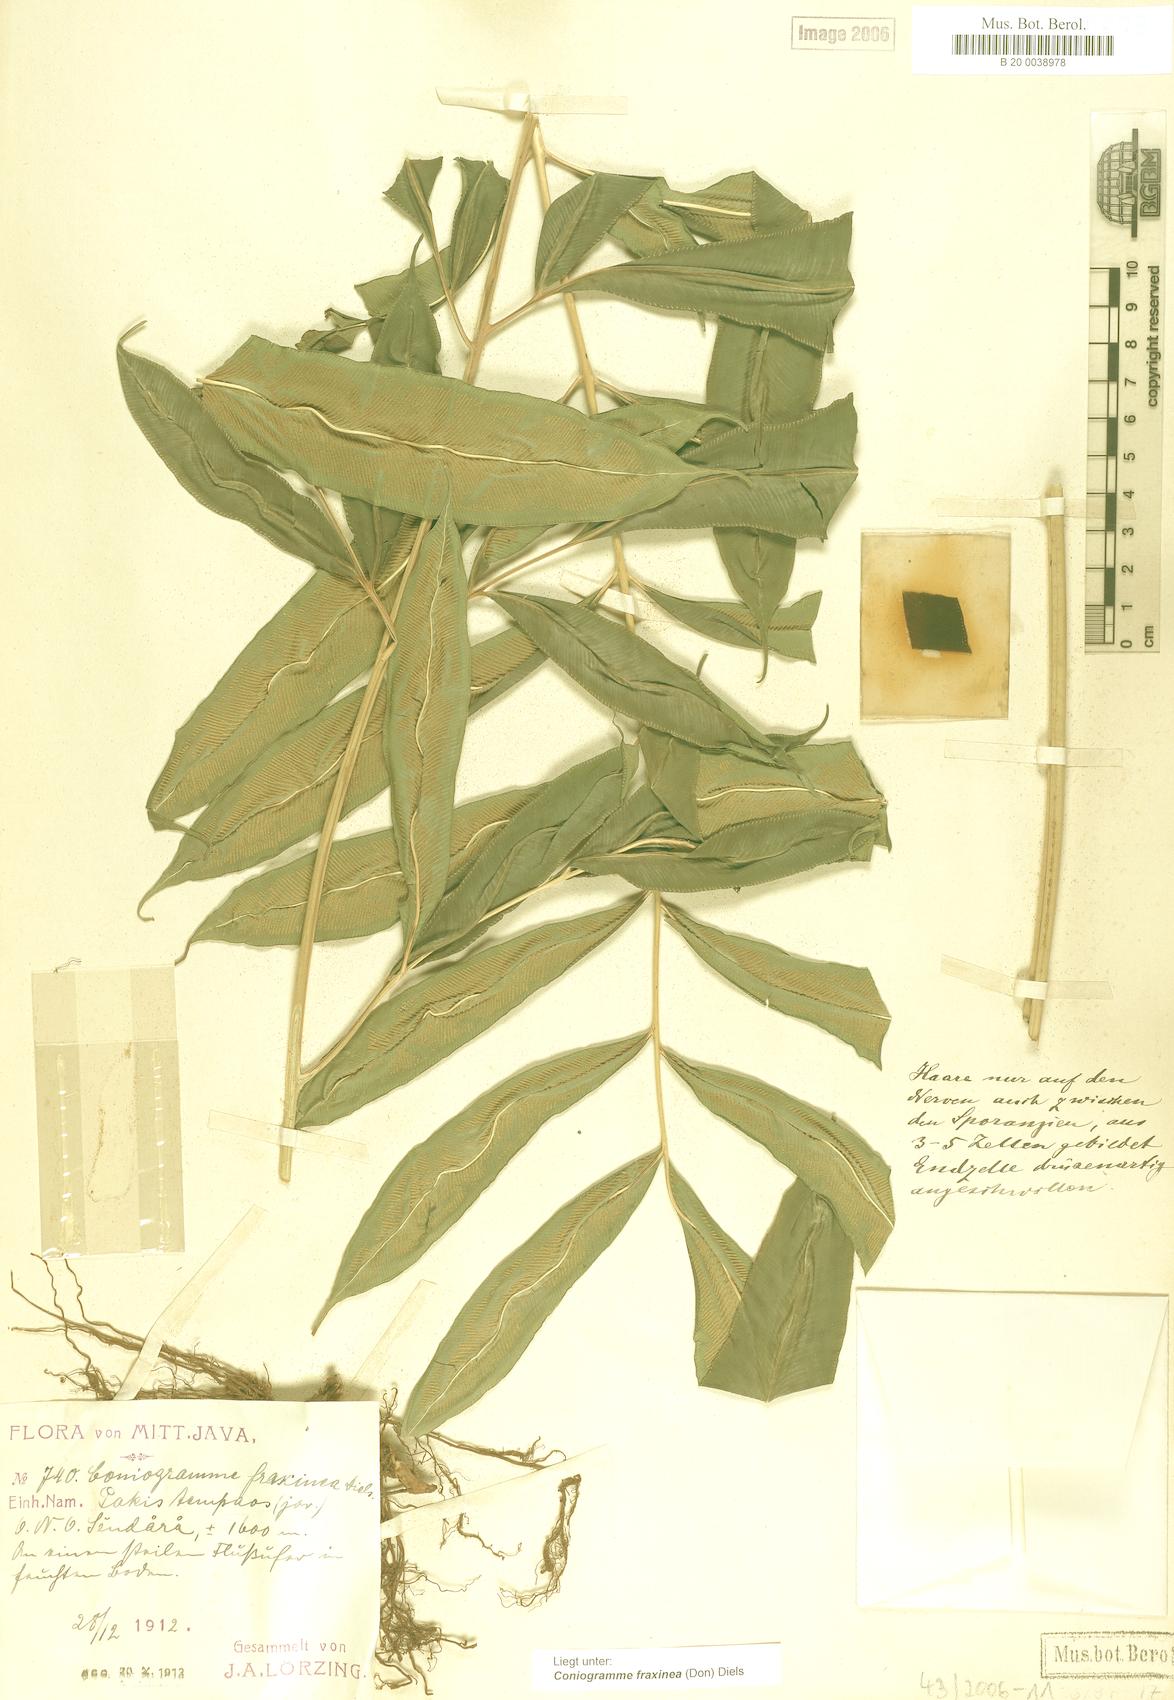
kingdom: Plantae
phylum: Tracheophyta
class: Polypodiopsida
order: Polypodiales
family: Pteridaceae
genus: Coniogramme
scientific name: Coniogramme fraxinea
